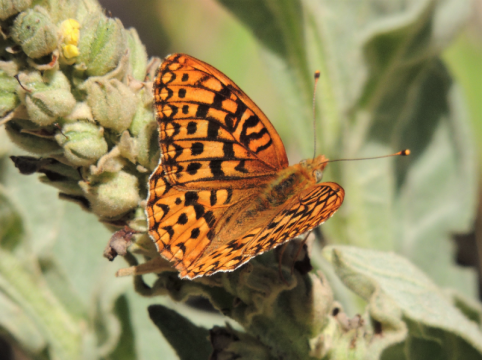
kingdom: Animalia
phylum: Arthropoda
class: Insecta
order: Lepidoptera
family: Nymphalidae
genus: Speyeria
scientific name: Speyeria hydaspe
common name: Hydaspe Fritillary
